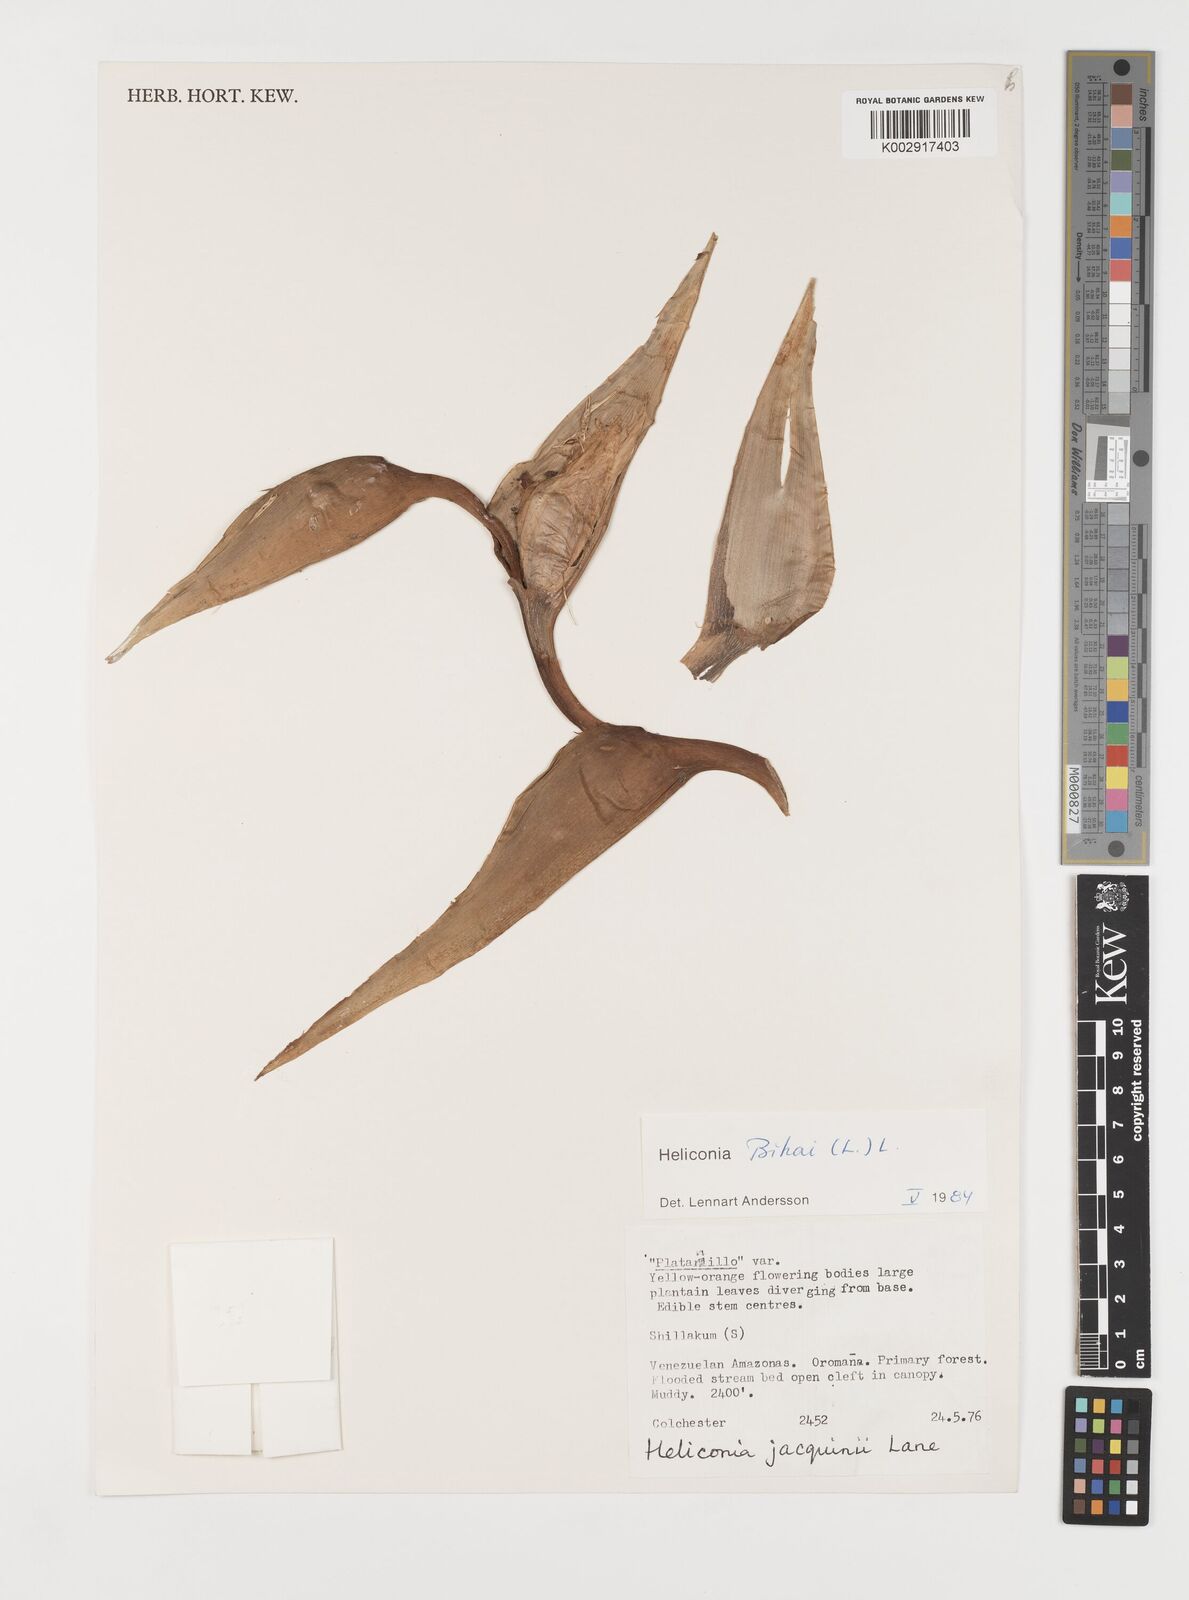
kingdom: Plantae
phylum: Tracheophyta
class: Liliopsida
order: Zingiberales
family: Heliconiaceae
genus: Heliconia
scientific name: Heliconia bihai
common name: Macaw flower
